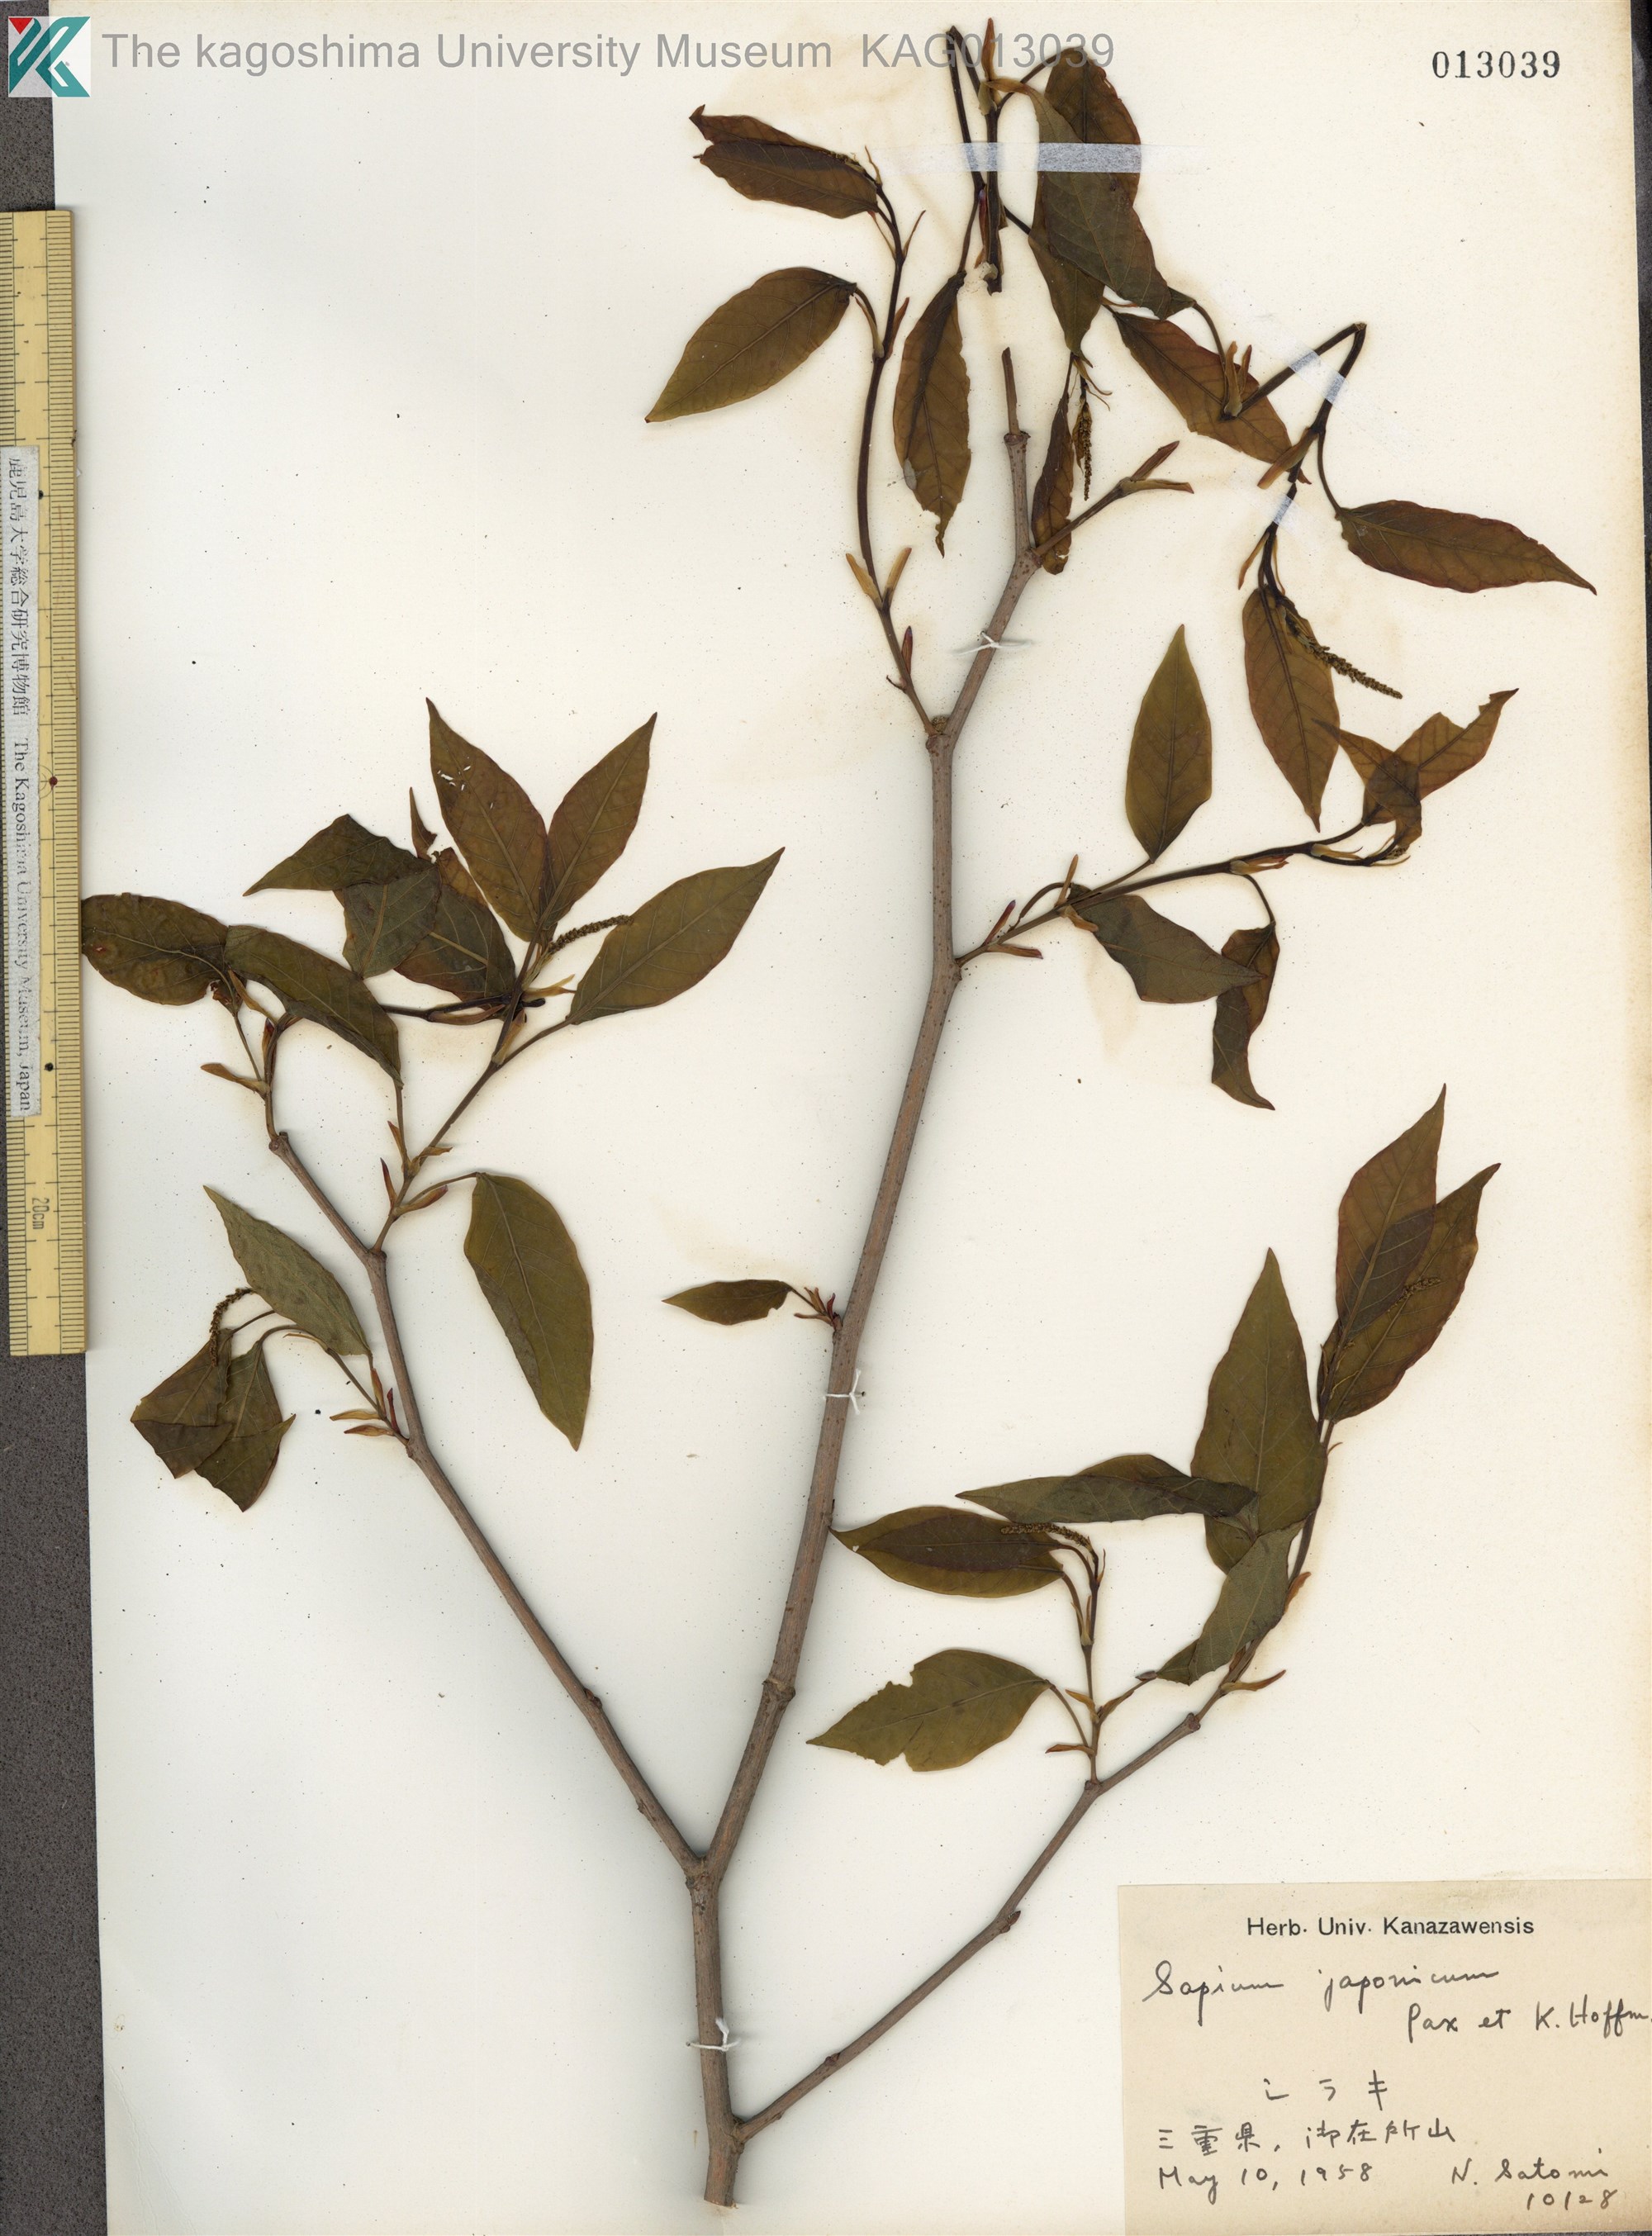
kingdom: Plantae
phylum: Tracheophyta
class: Magnoliopsida
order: Malpighiales
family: Euphorbiaceae
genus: Neoshirakia
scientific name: Neoshirakia japonica
